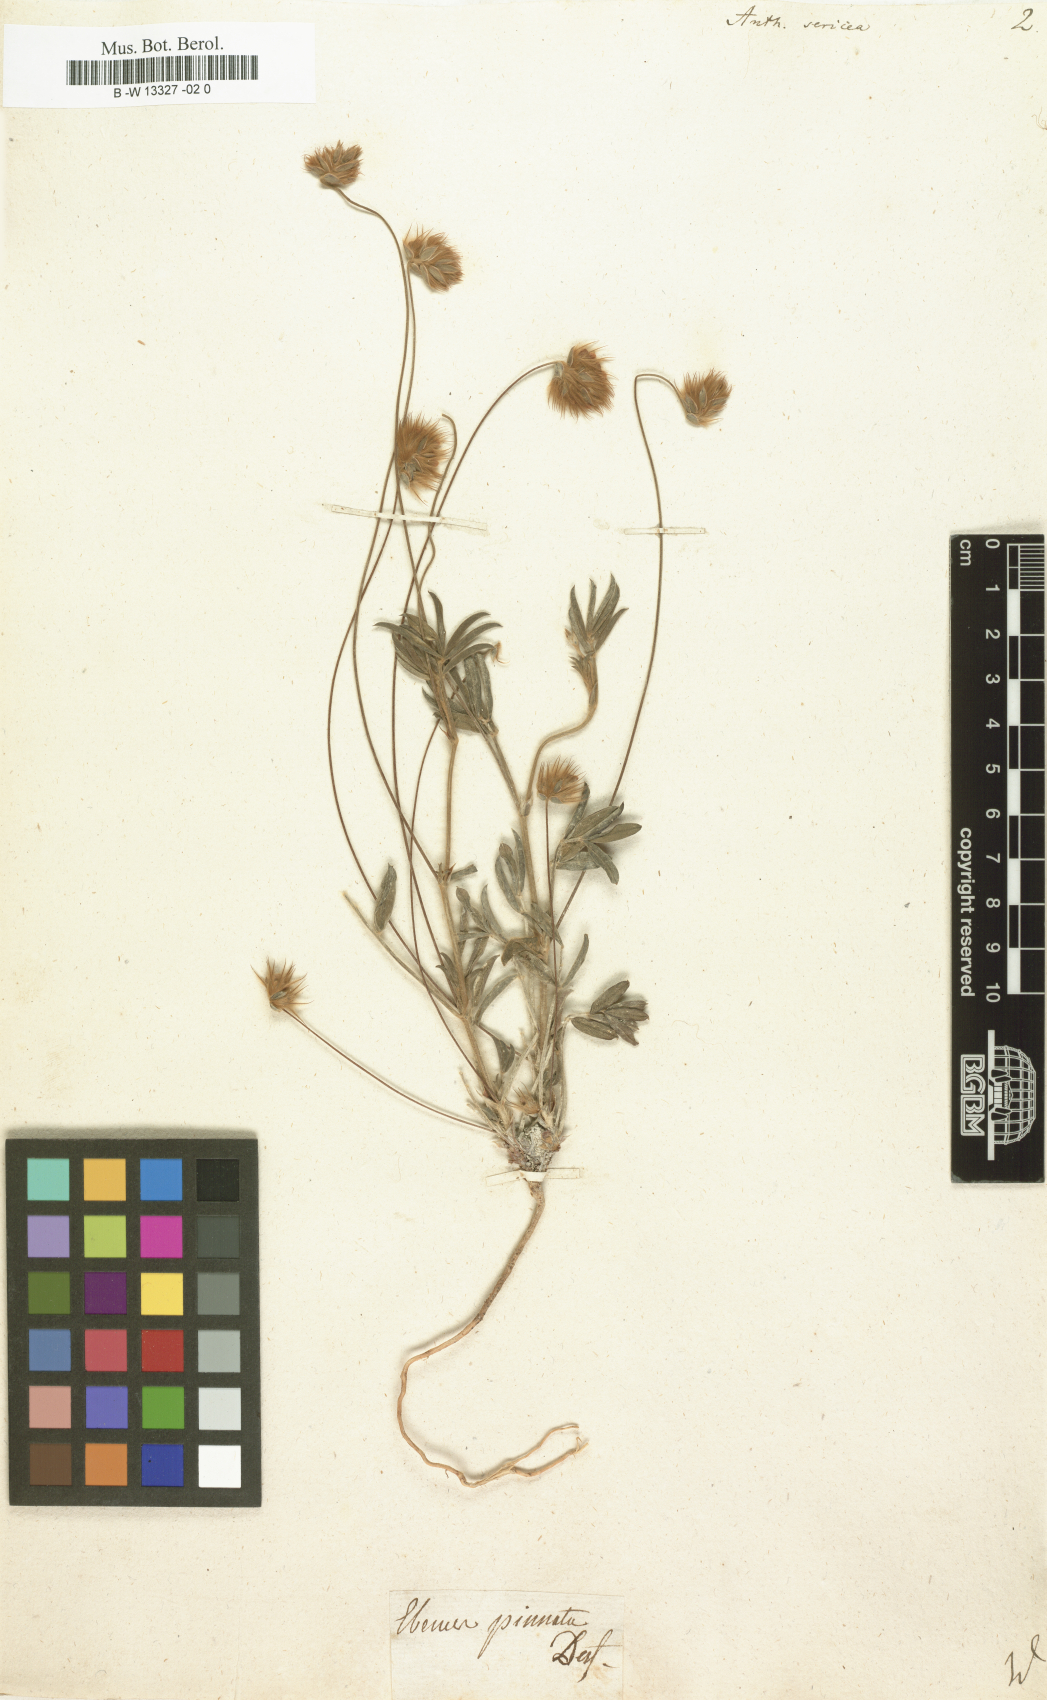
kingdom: Plantae
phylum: Tracheophyta
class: Magnoliopsida
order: Fabales
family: Fabaceae
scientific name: Fabaceae
